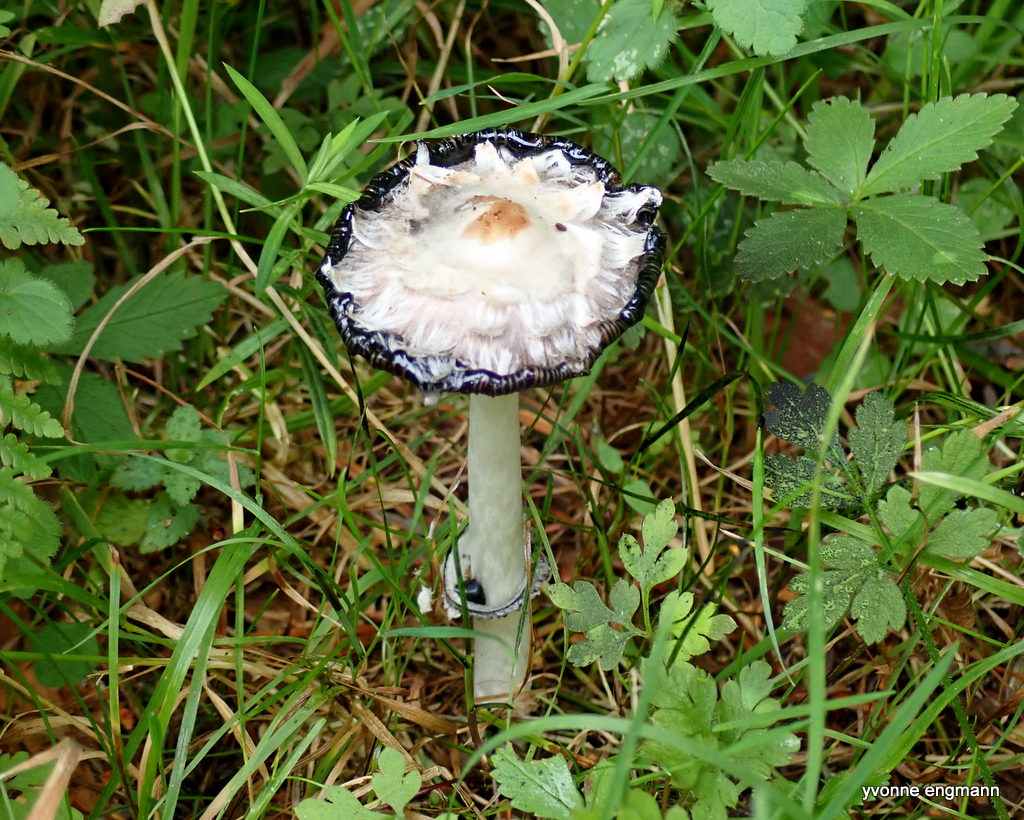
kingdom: Fungi
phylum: Basidiomycota
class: Agaricomycetes
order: Agaricales
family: Agaricaceae
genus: Coprinus
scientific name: Coprinus comatus
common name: stor parykhat
